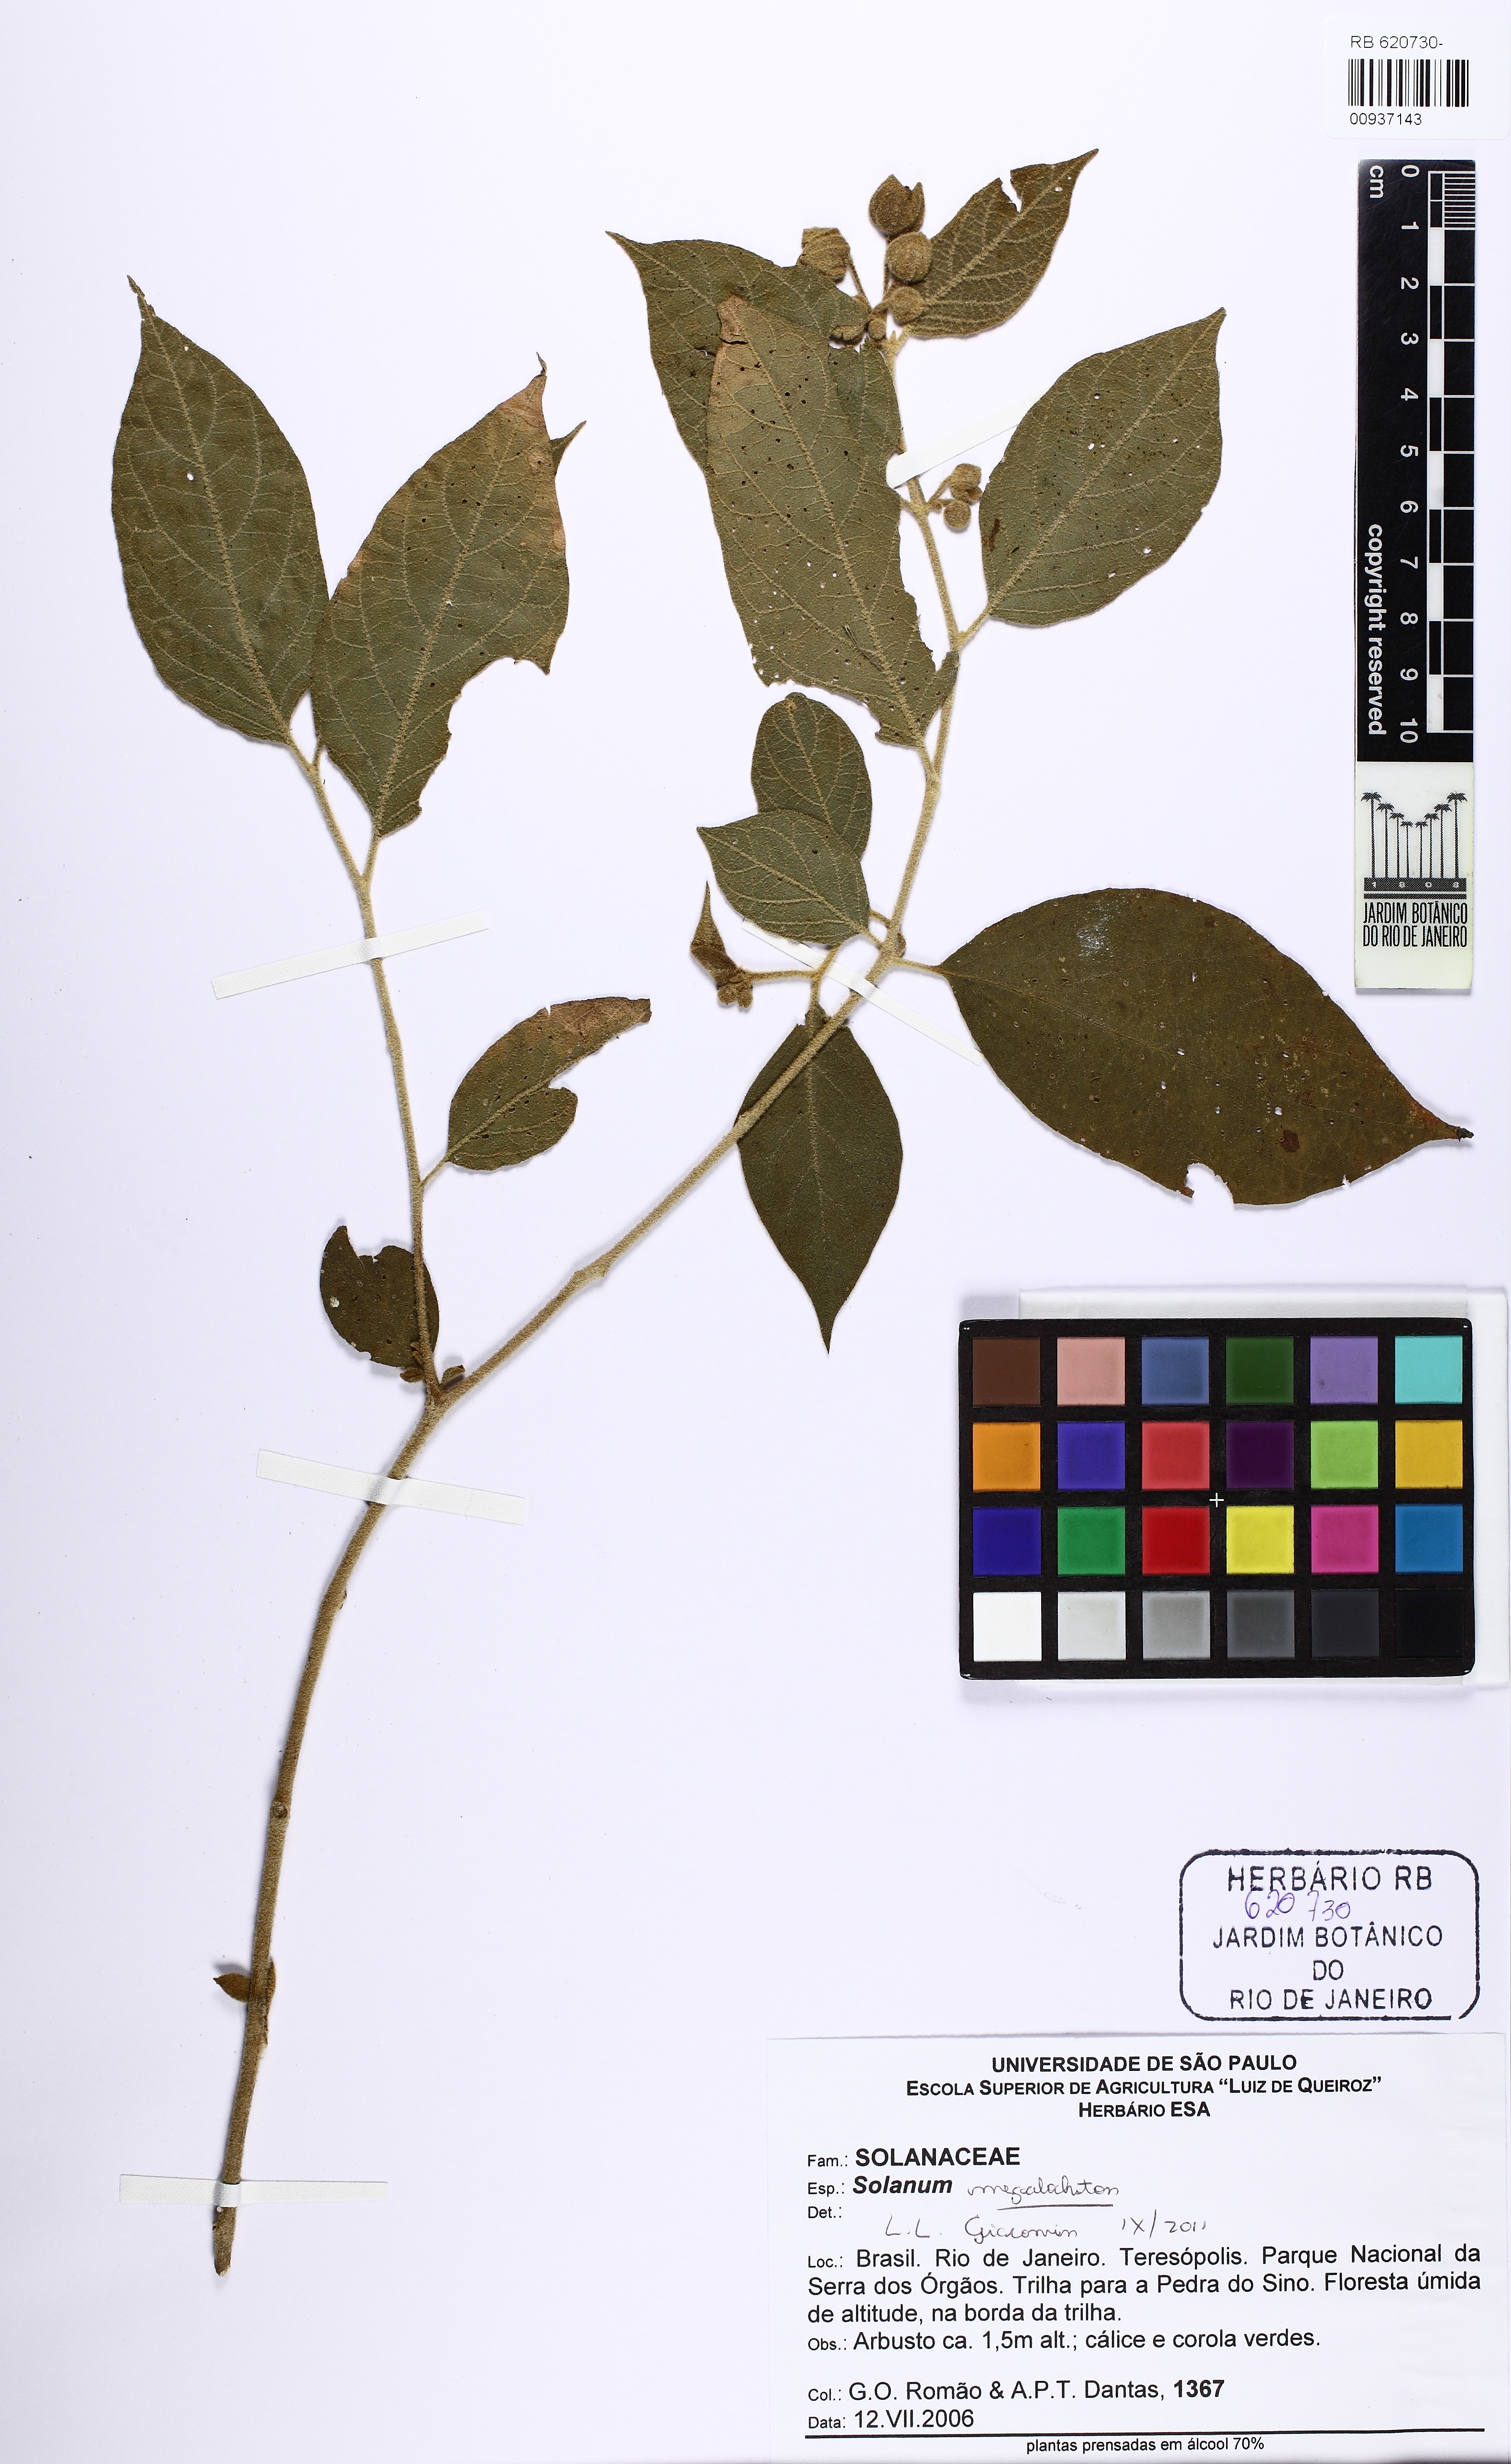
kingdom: Plantae
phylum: Tracheophyta
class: Magnoliopsida
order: Solanales
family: Solanaceae
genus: Solanum
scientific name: Solanum megalochiton
